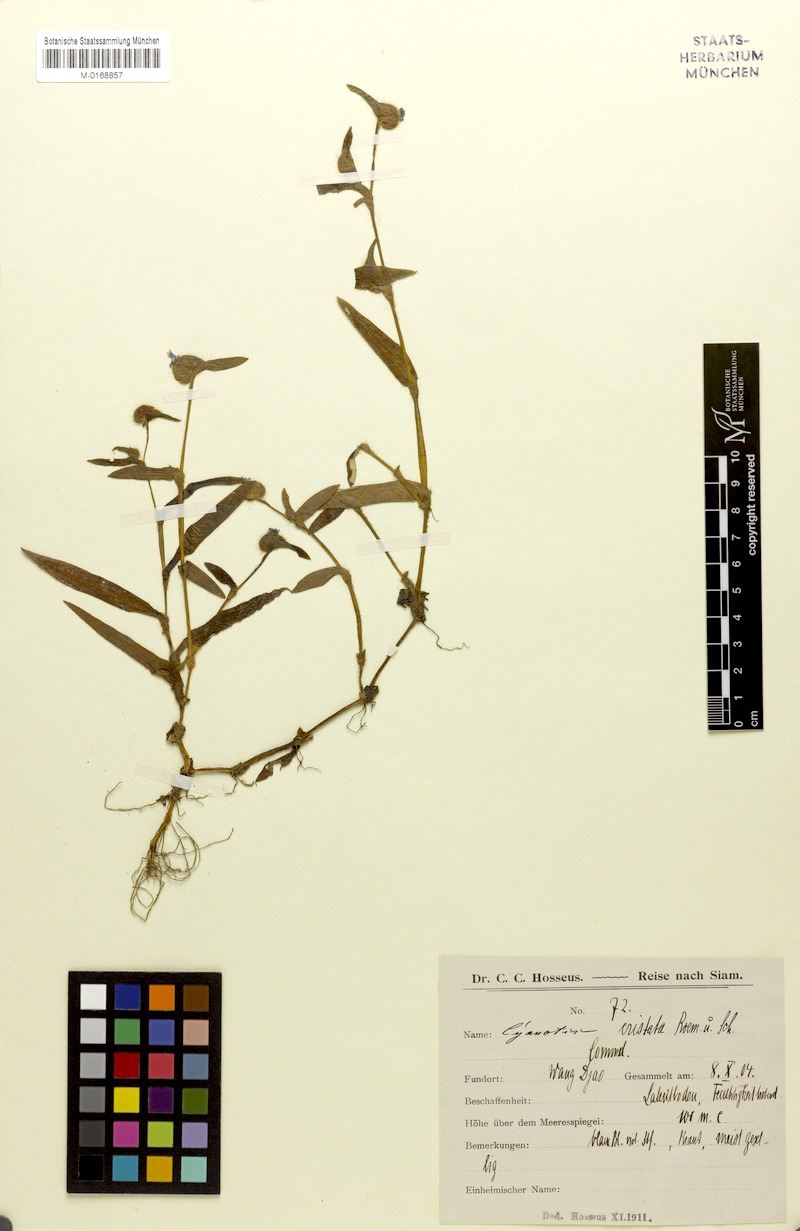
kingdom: Plantae
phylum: Tracheophyta
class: Liliopsida
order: Commelinales
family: Commelinaceae
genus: Cyanotis
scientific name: Cyanotis cristata
